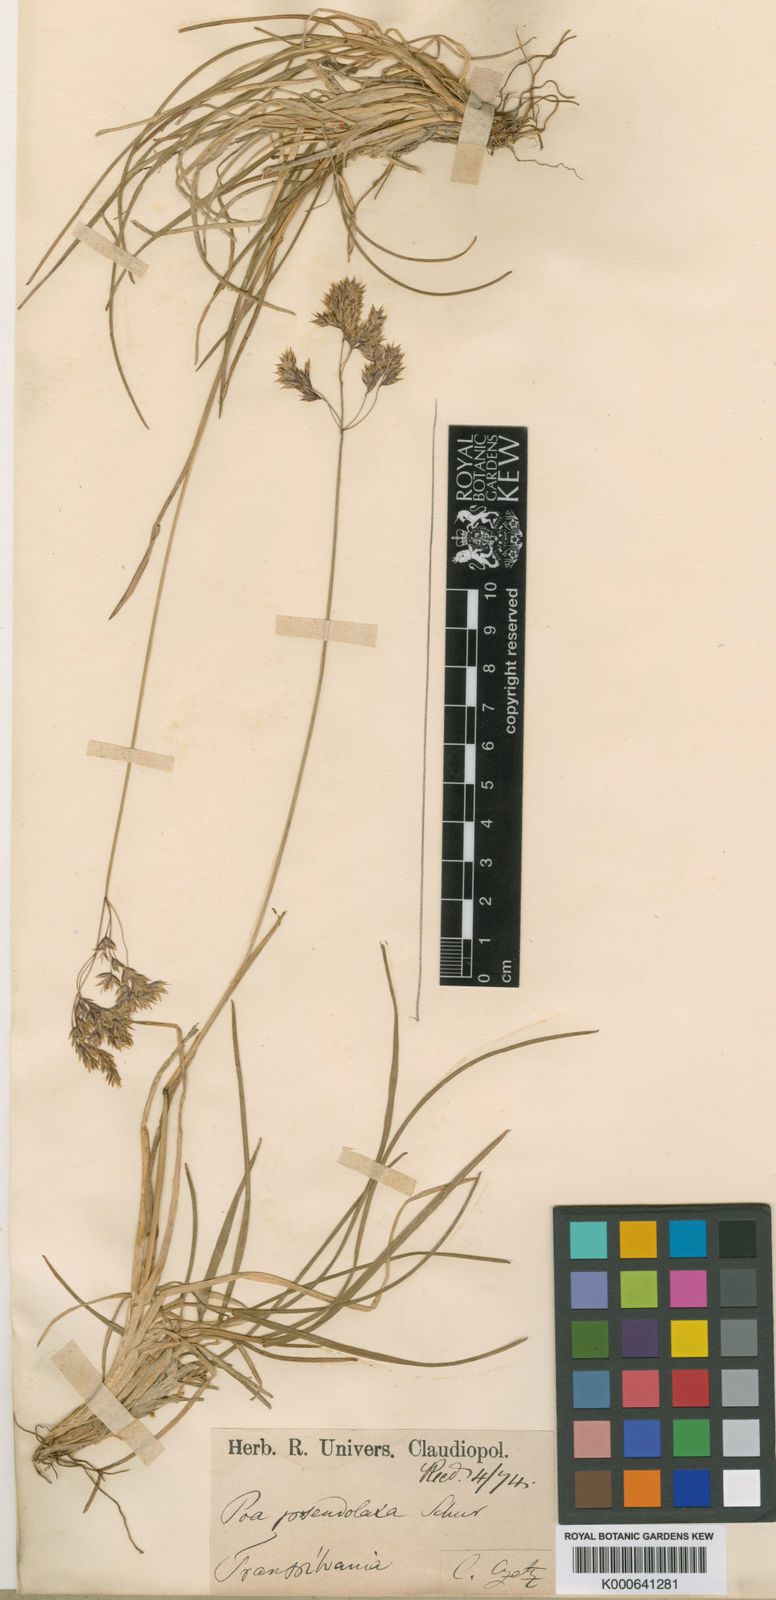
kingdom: Plantae
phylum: Tracheophyta
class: Liliopsida
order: Poales
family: Poaceae
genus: Poa
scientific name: Poa alpina
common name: Alpine bluegrass
